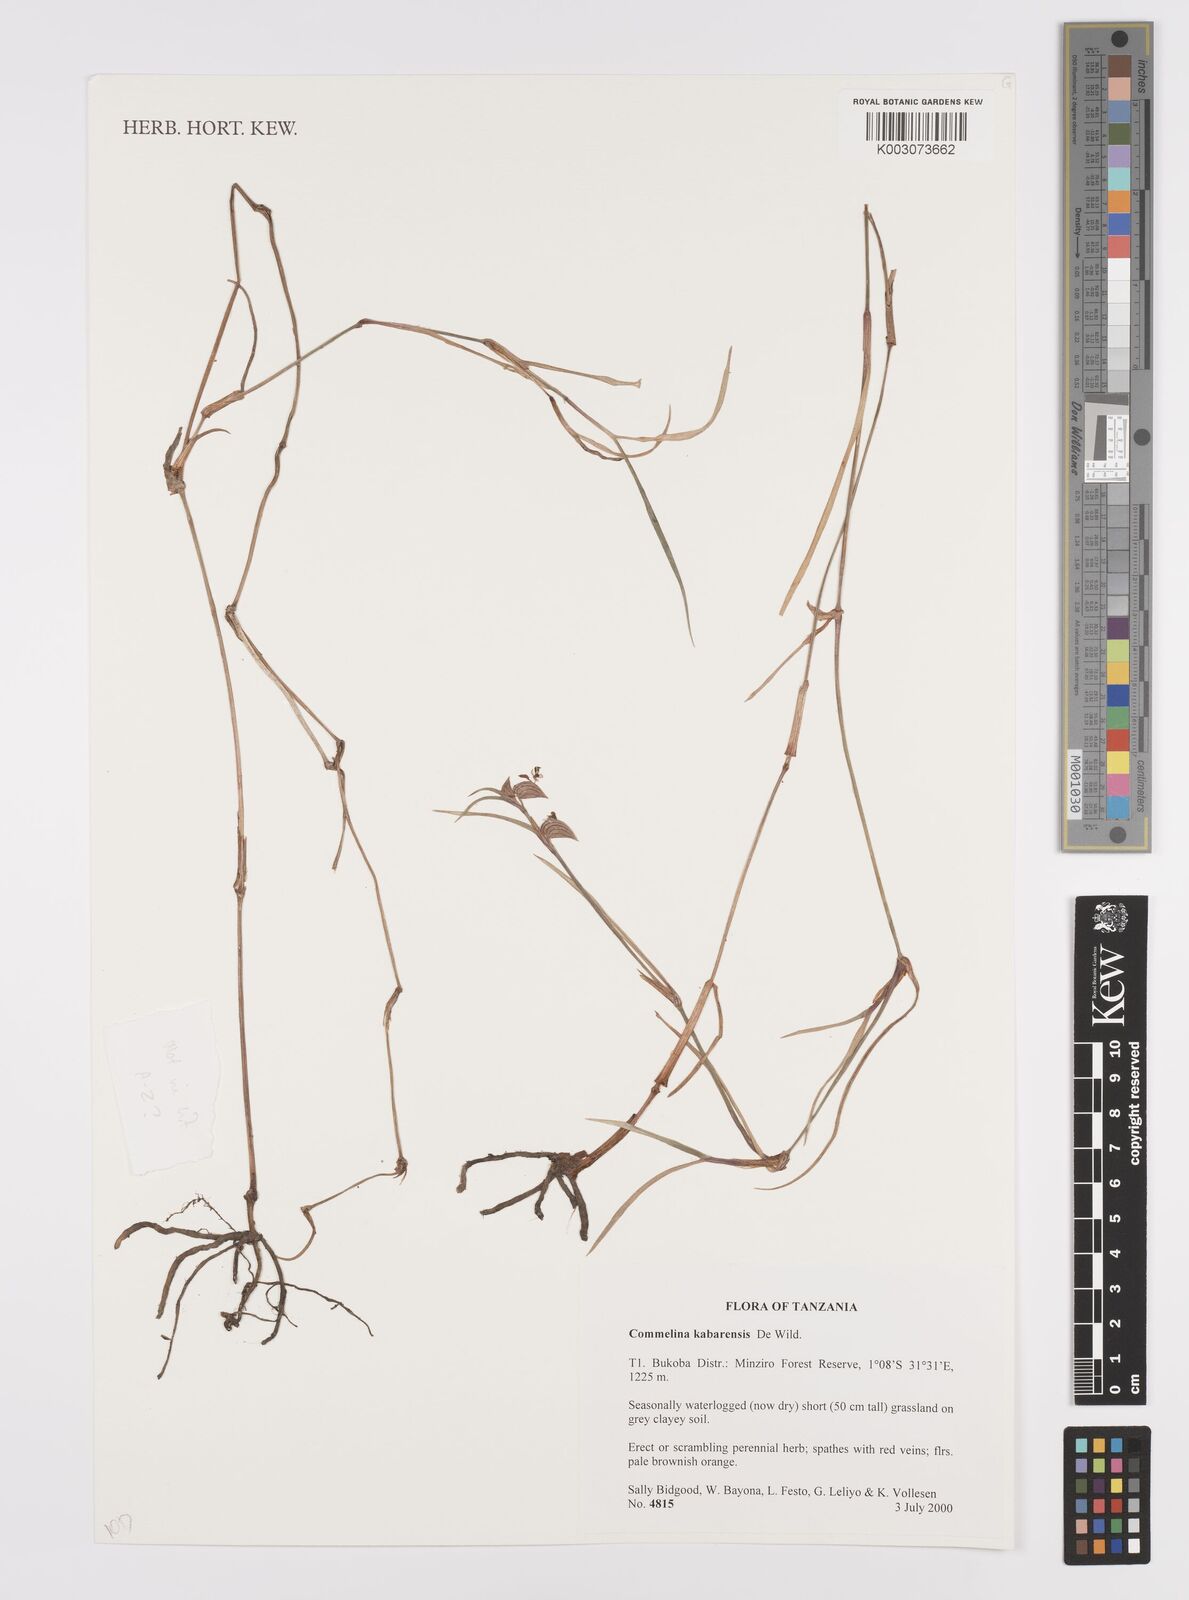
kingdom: Plantae
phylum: Tracheophyta
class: Liliopsida
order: Commelinales
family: Commelinaceae
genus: Commelina
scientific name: Commelina purpurea
